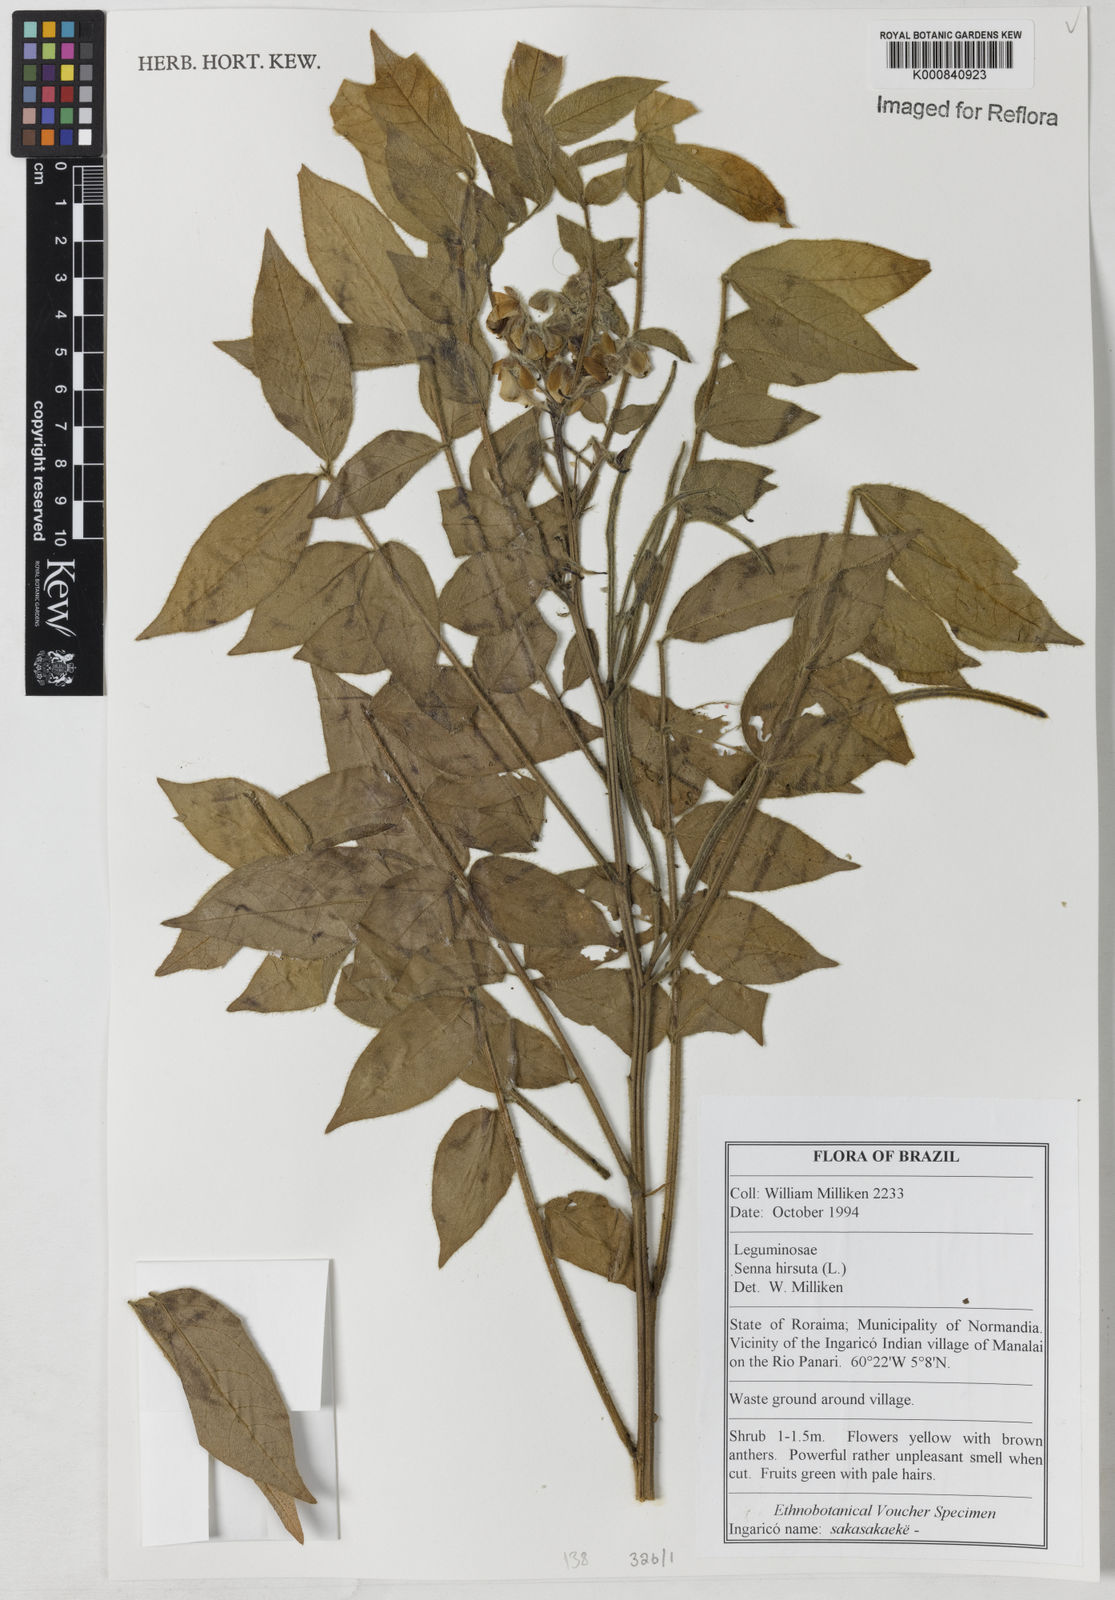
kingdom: Plantae
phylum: Tracheophyta
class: Magnoliopsida
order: Fabales
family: Fabaceae
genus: Senna
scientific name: Senna hirsuta
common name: Woolly senna
